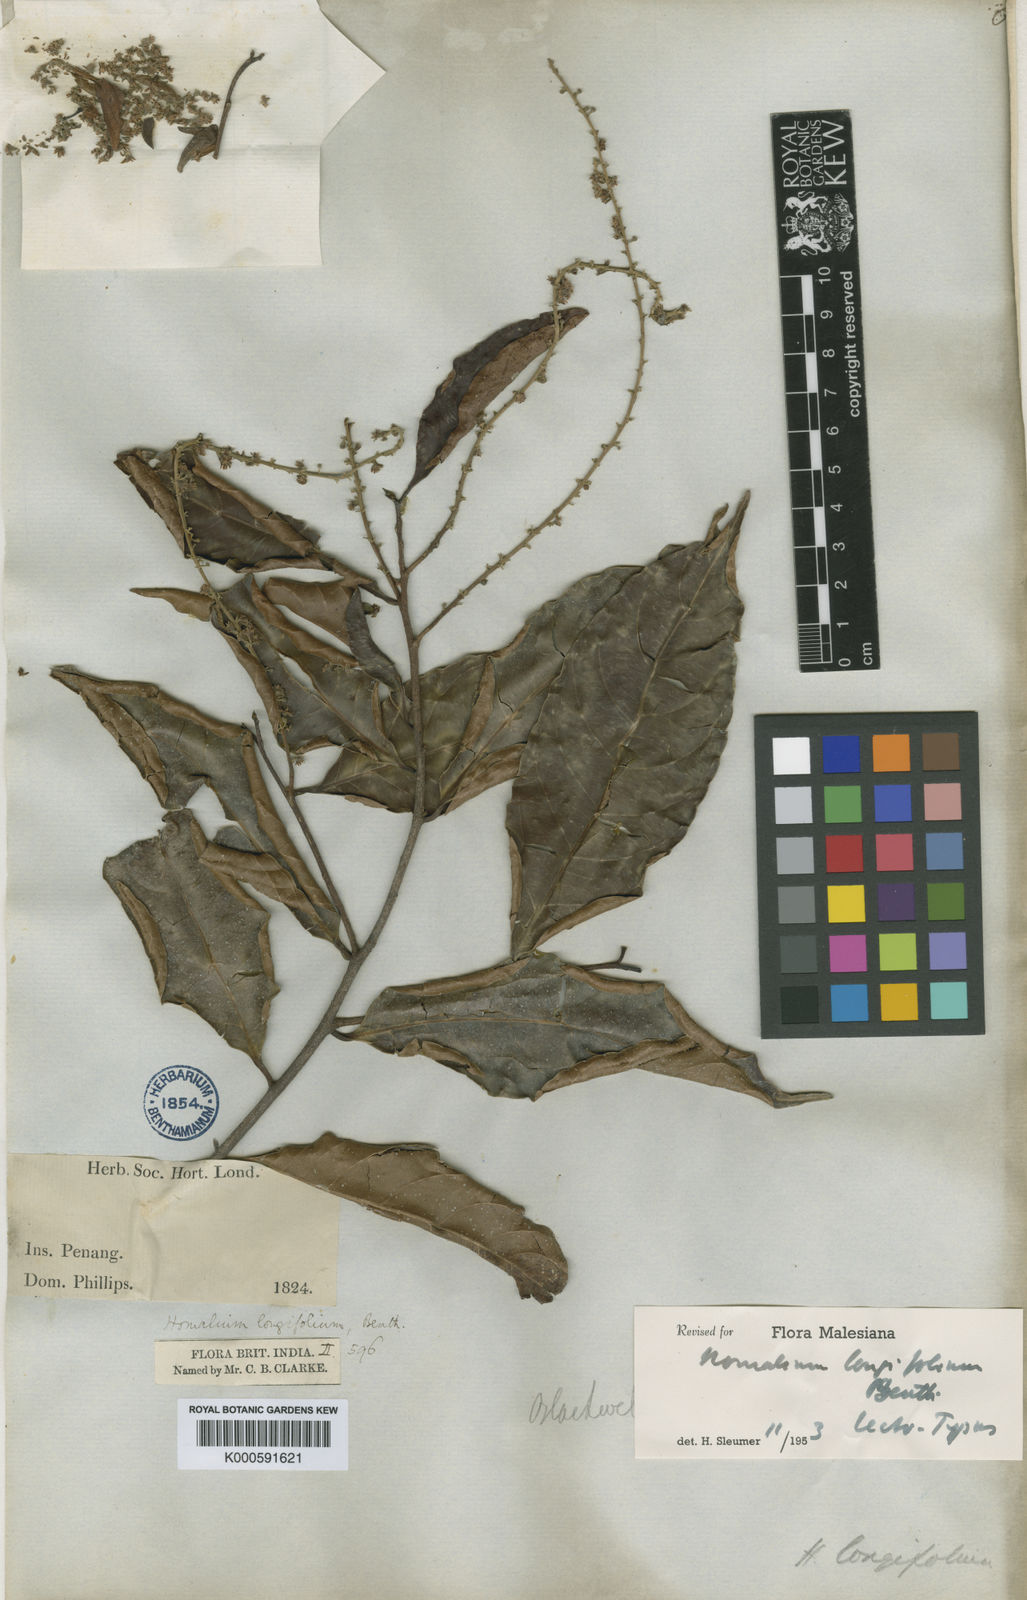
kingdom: Plantae
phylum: Tracheophyta
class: Magnoliopsida
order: Malpighiales
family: Salicaceae
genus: Homalium
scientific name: Homalium longifolium
